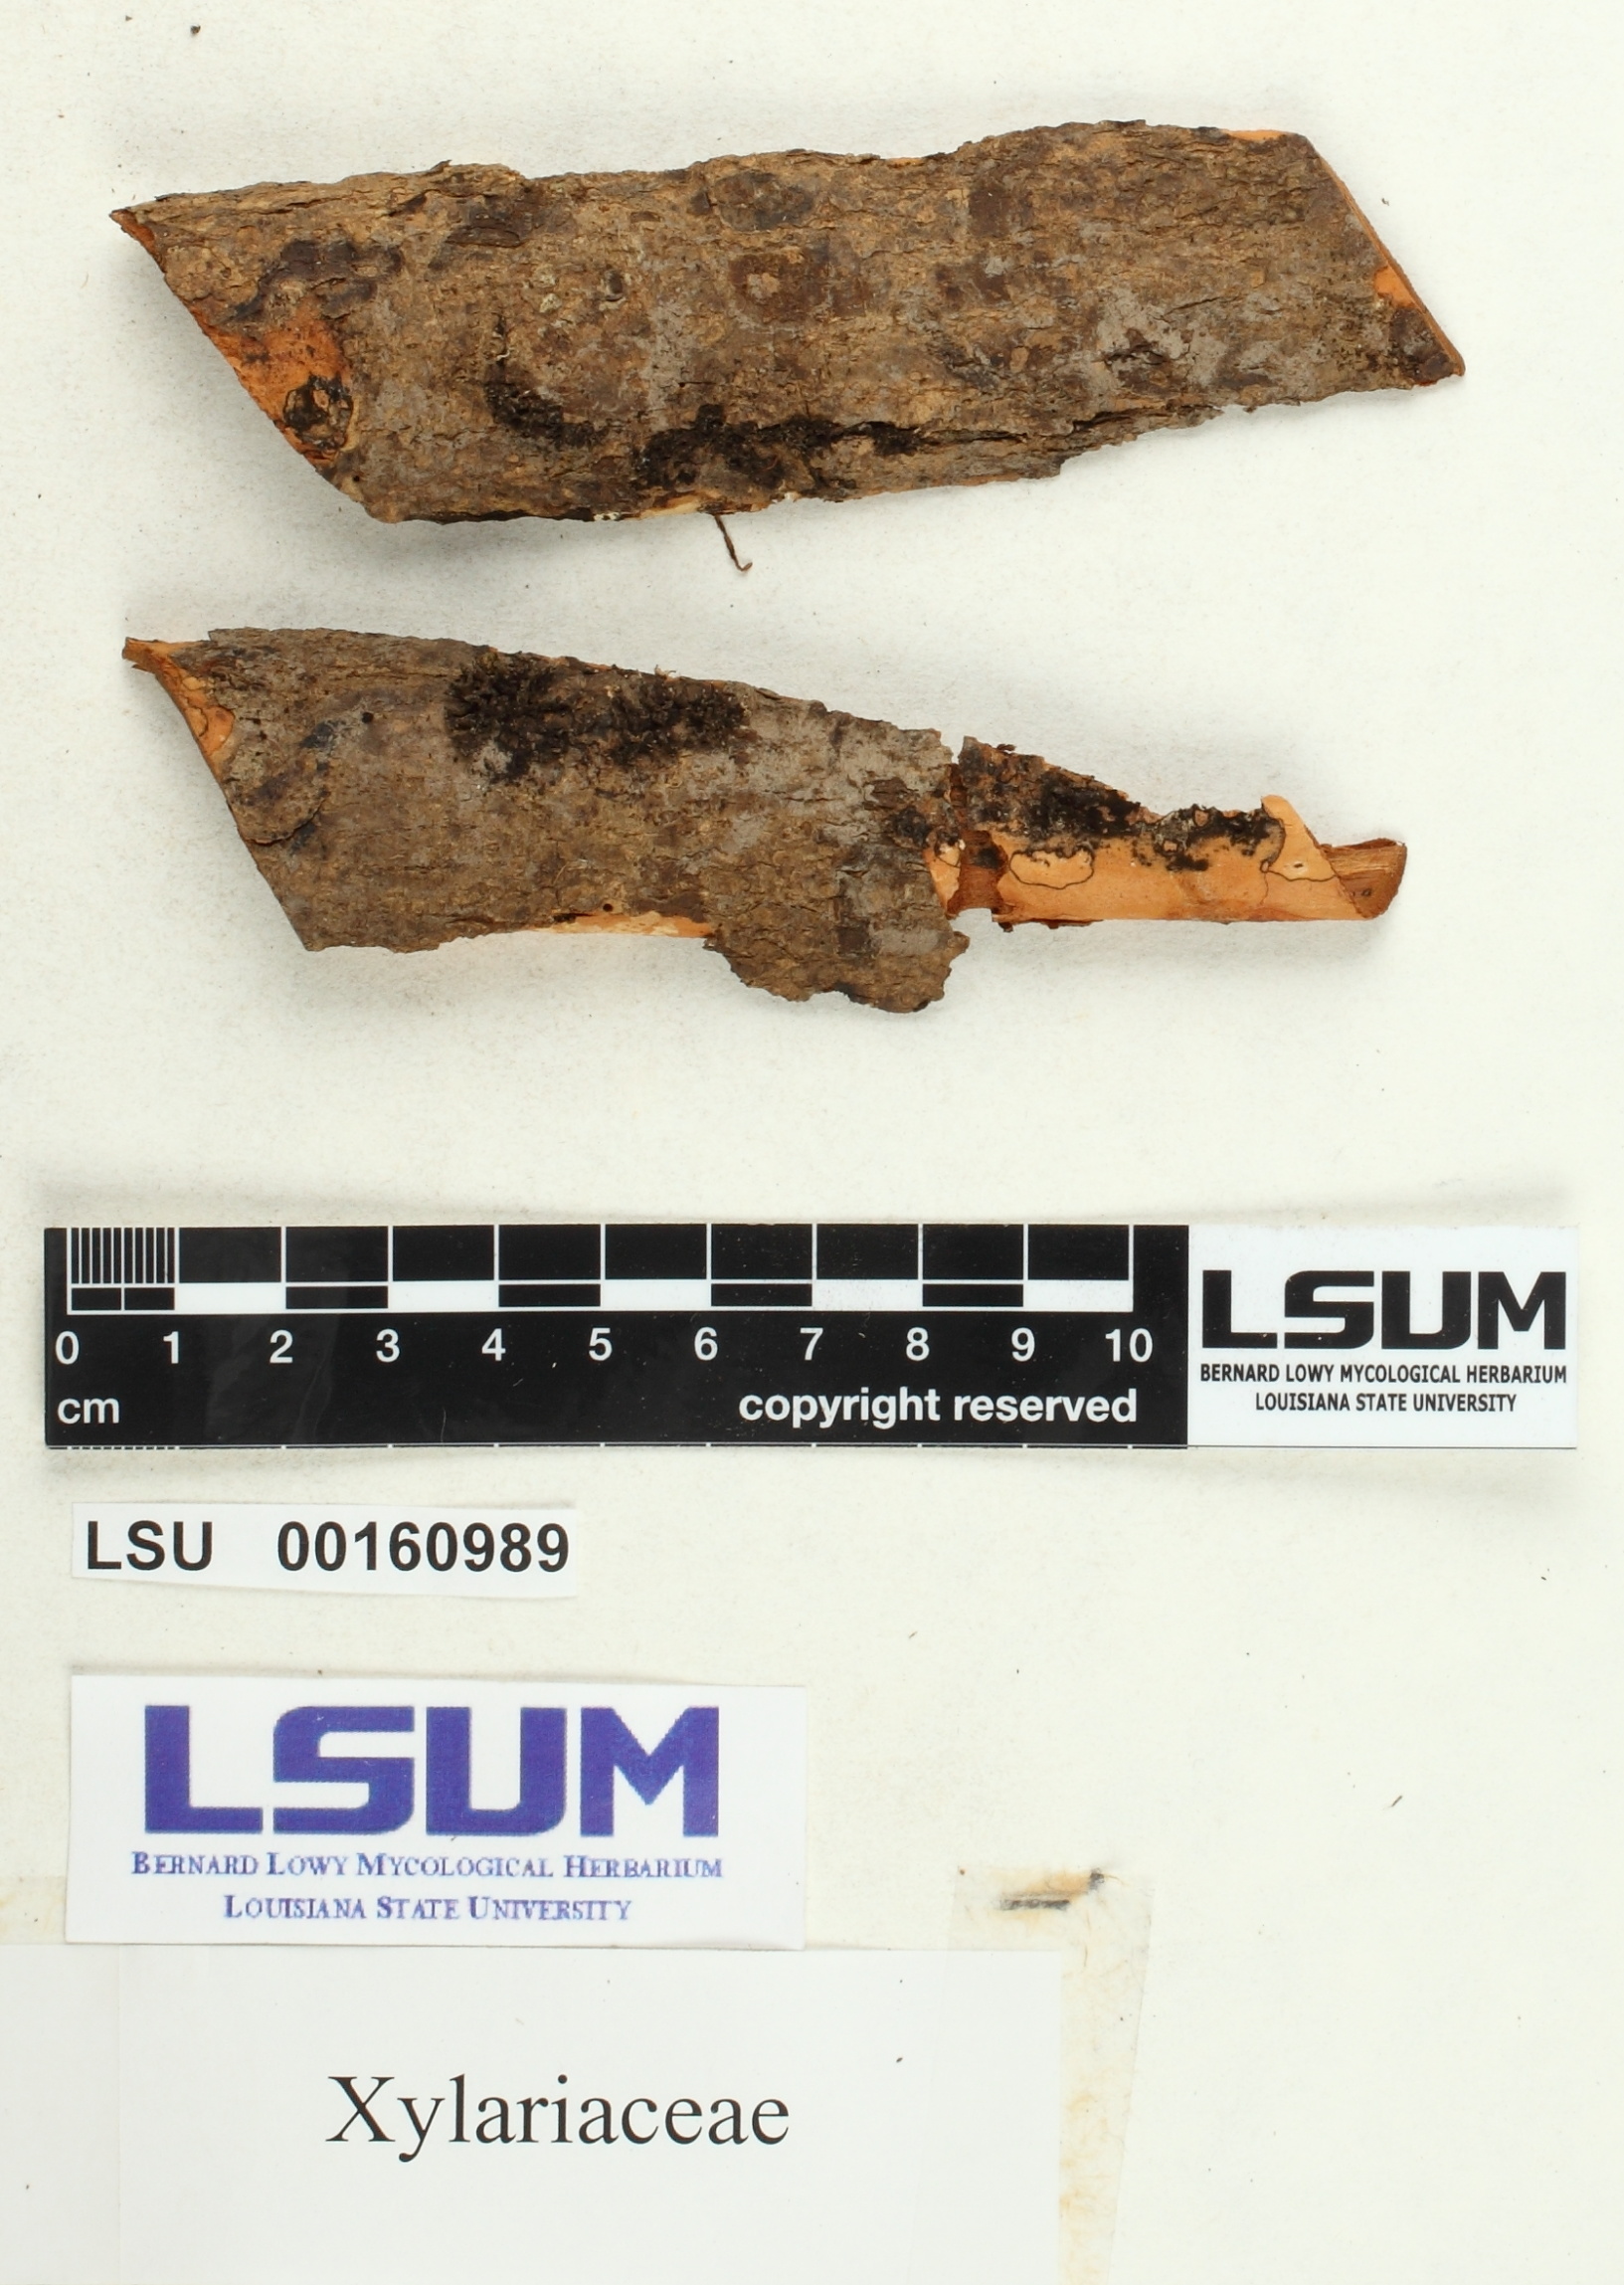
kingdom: Fungi
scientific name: Fungi
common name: Fungi
